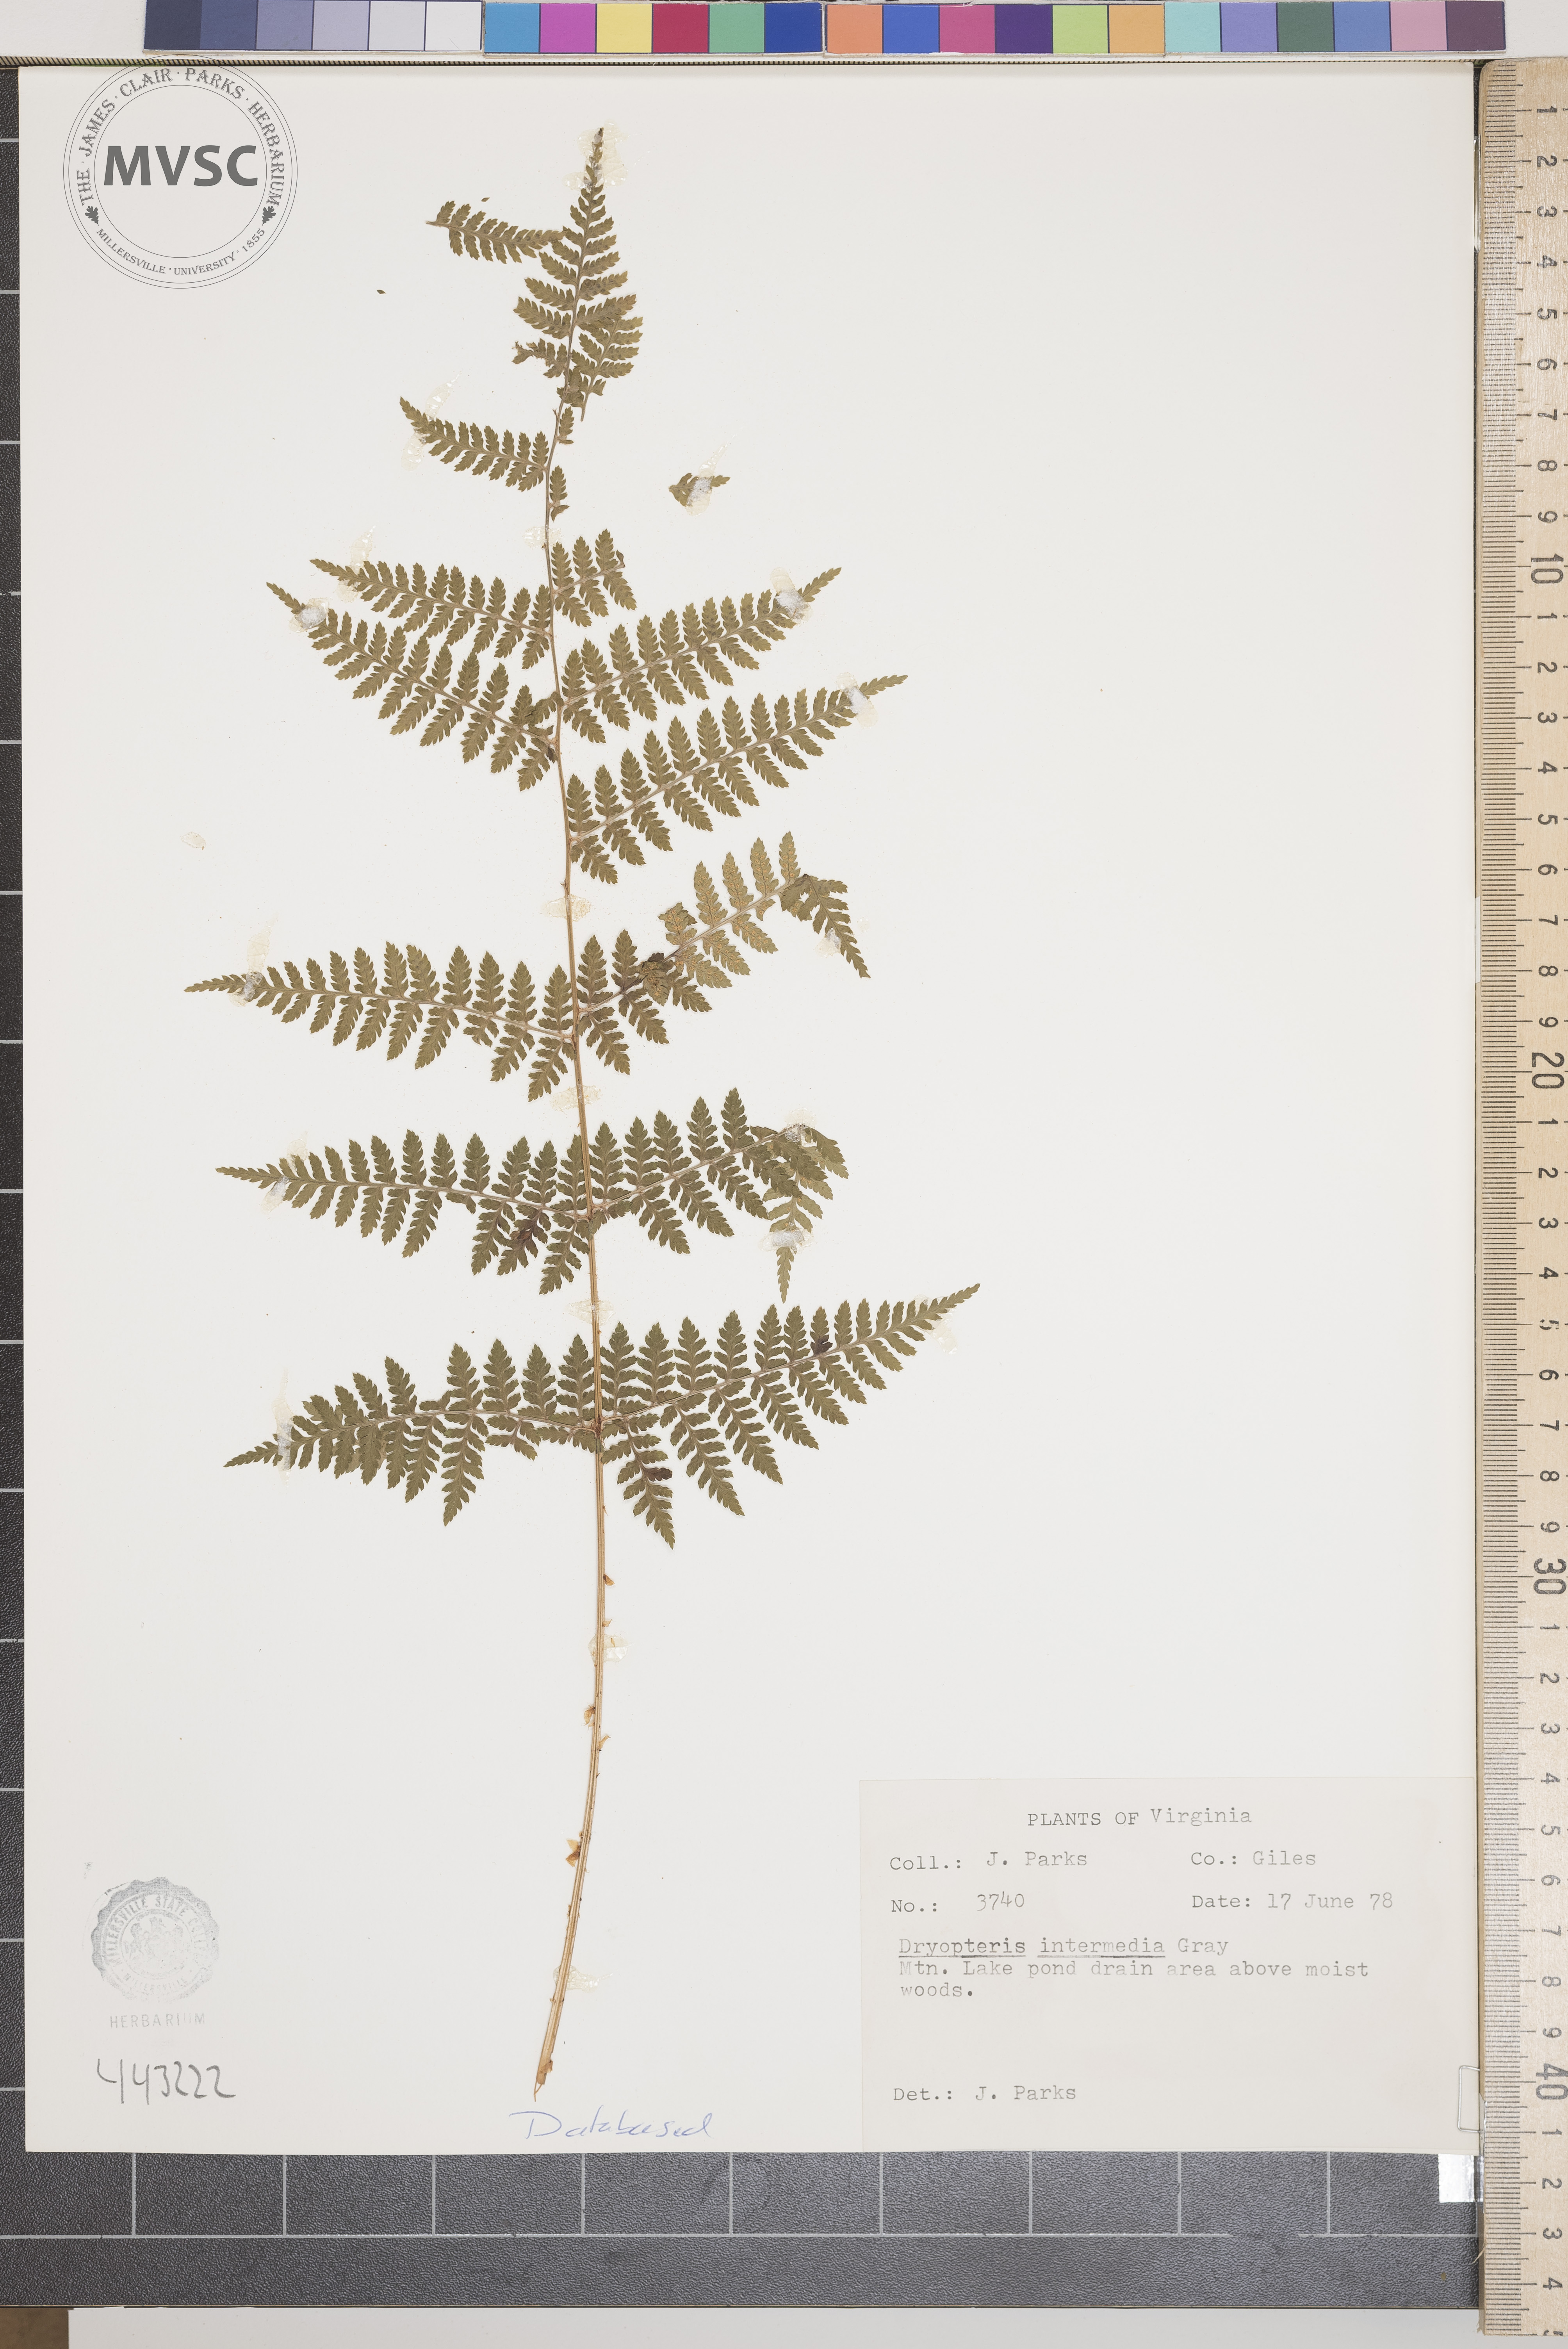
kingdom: Plantae
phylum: Tracheophyta
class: Polypodiopsida
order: Polypodiales
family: Dryopteridaceae
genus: Dryopteris
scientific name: Dryopteris intermedia
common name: Evergreen wood fern
